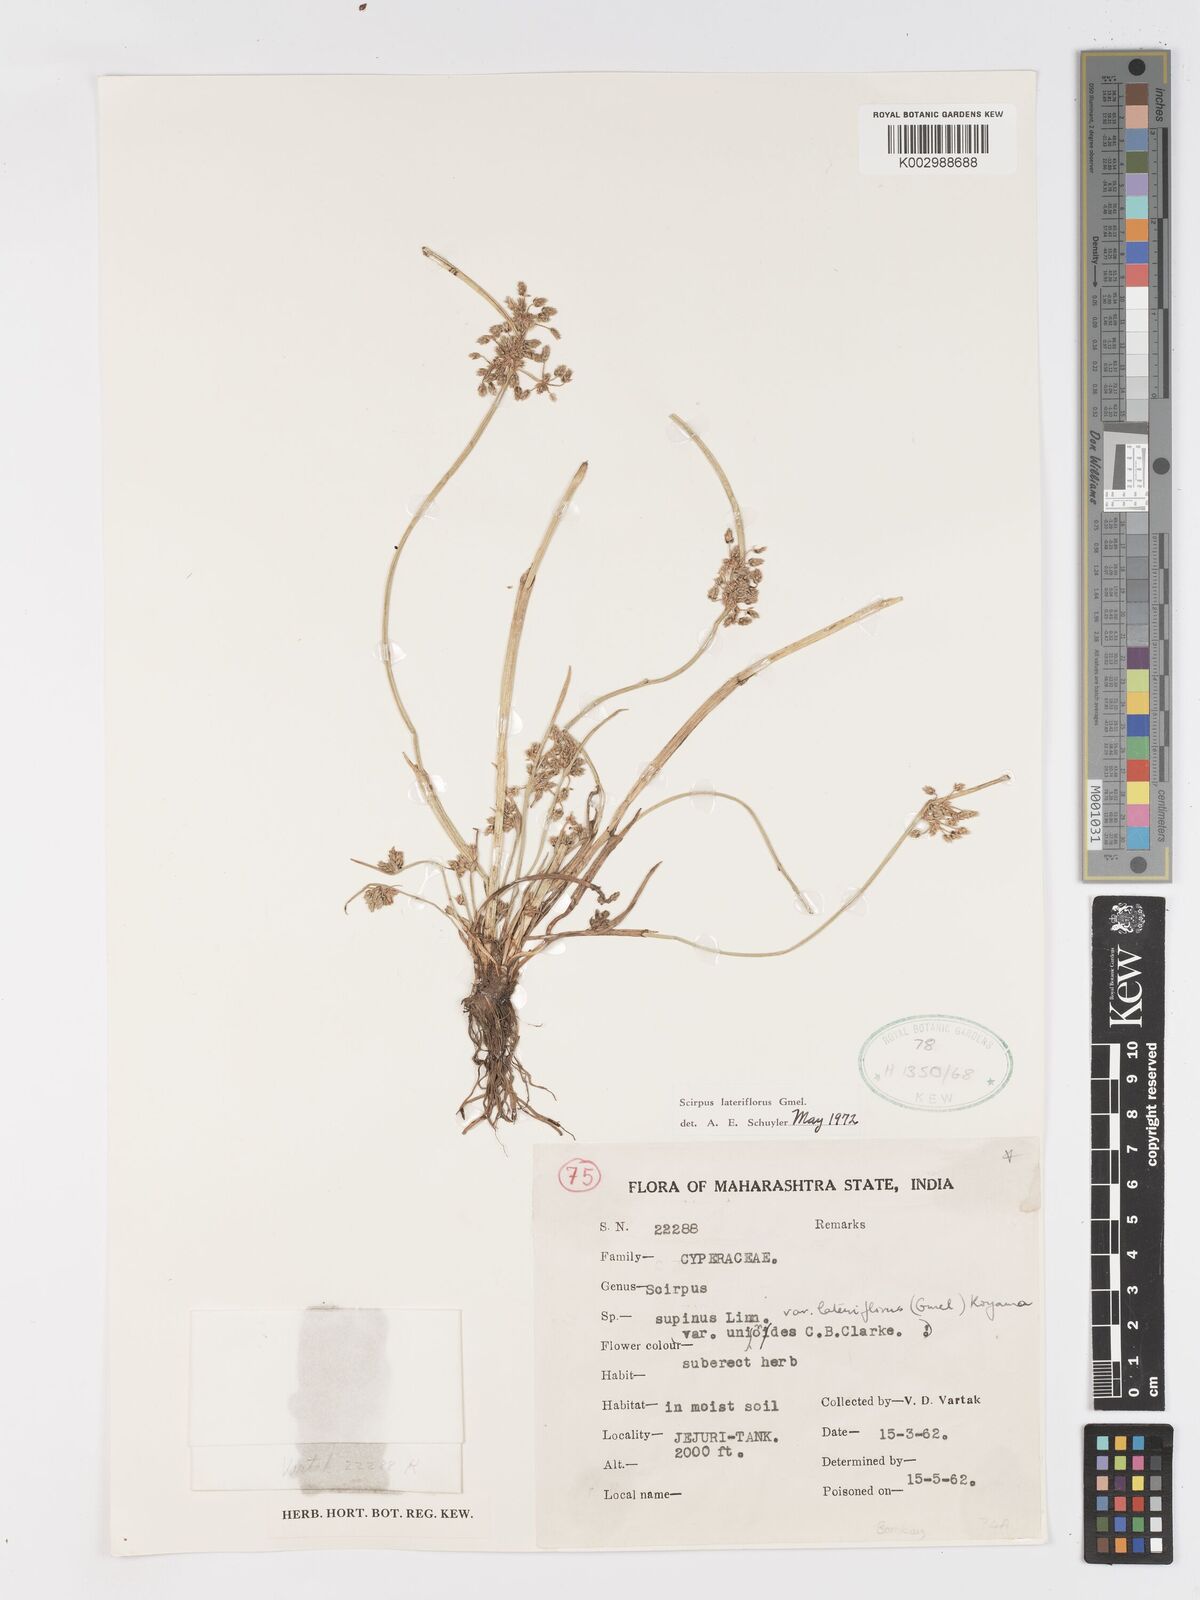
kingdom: Plantae
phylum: Tracheophyta
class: Liliopsida
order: Poales
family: Cyperaceae
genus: Schoenoplectiella
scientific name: Schoenoplectiella lateriflora
